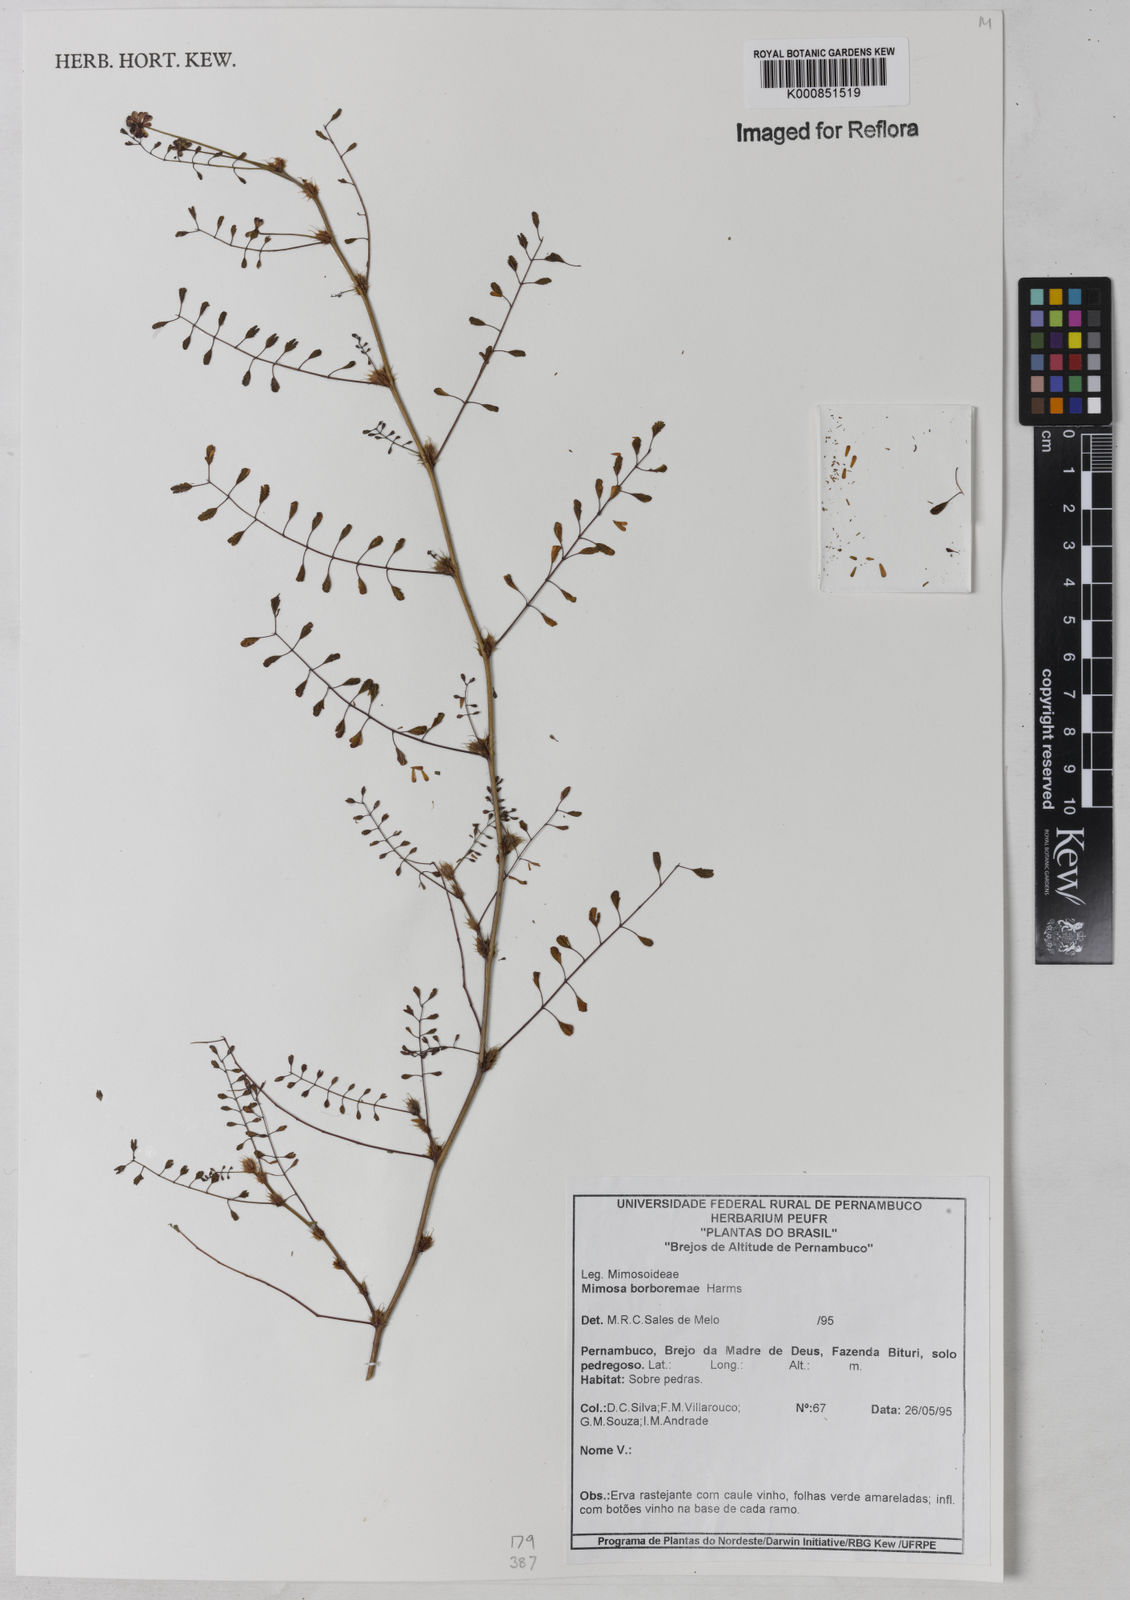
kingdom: Plantae
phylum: Tracheophyta
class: Magnoliopsida
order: Fabales
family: Fabaceae
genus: Mimosa
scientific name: Mimosa borboremae
